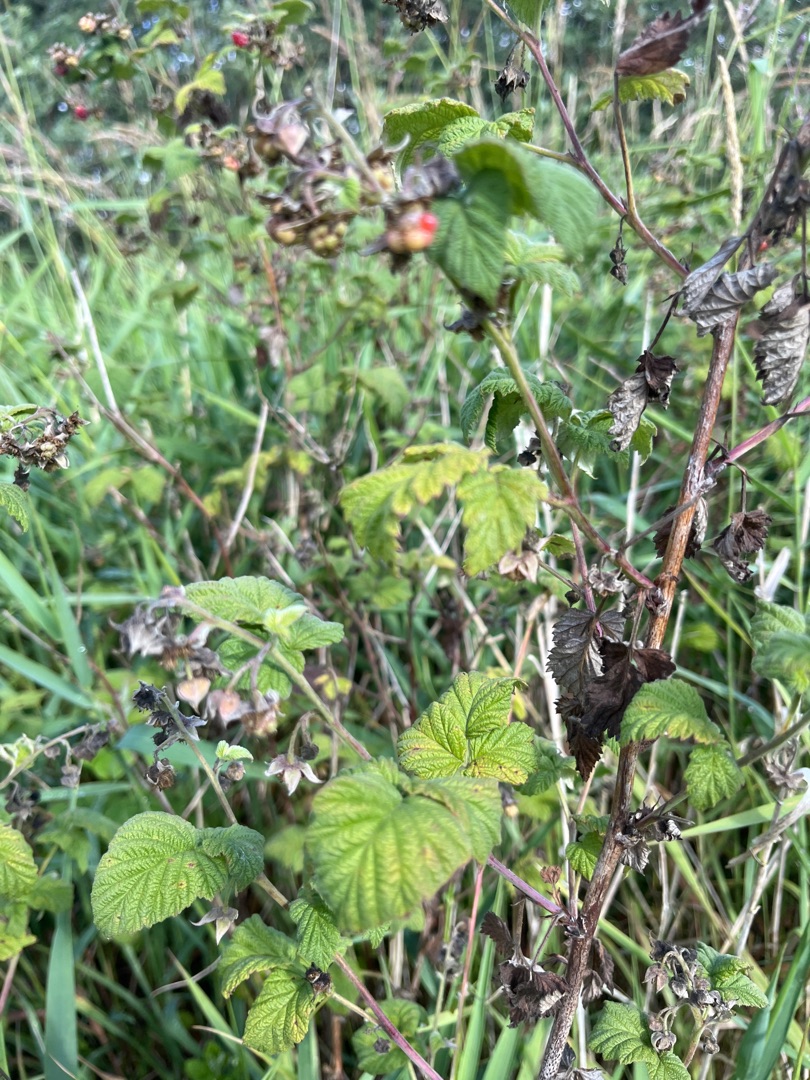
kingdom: Plantae
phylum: Tracheophyta
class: Magnoliopsida
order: Rosales
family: Rosaceae
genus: Rubus
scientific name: Rubus idaeus
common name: Hindbær
